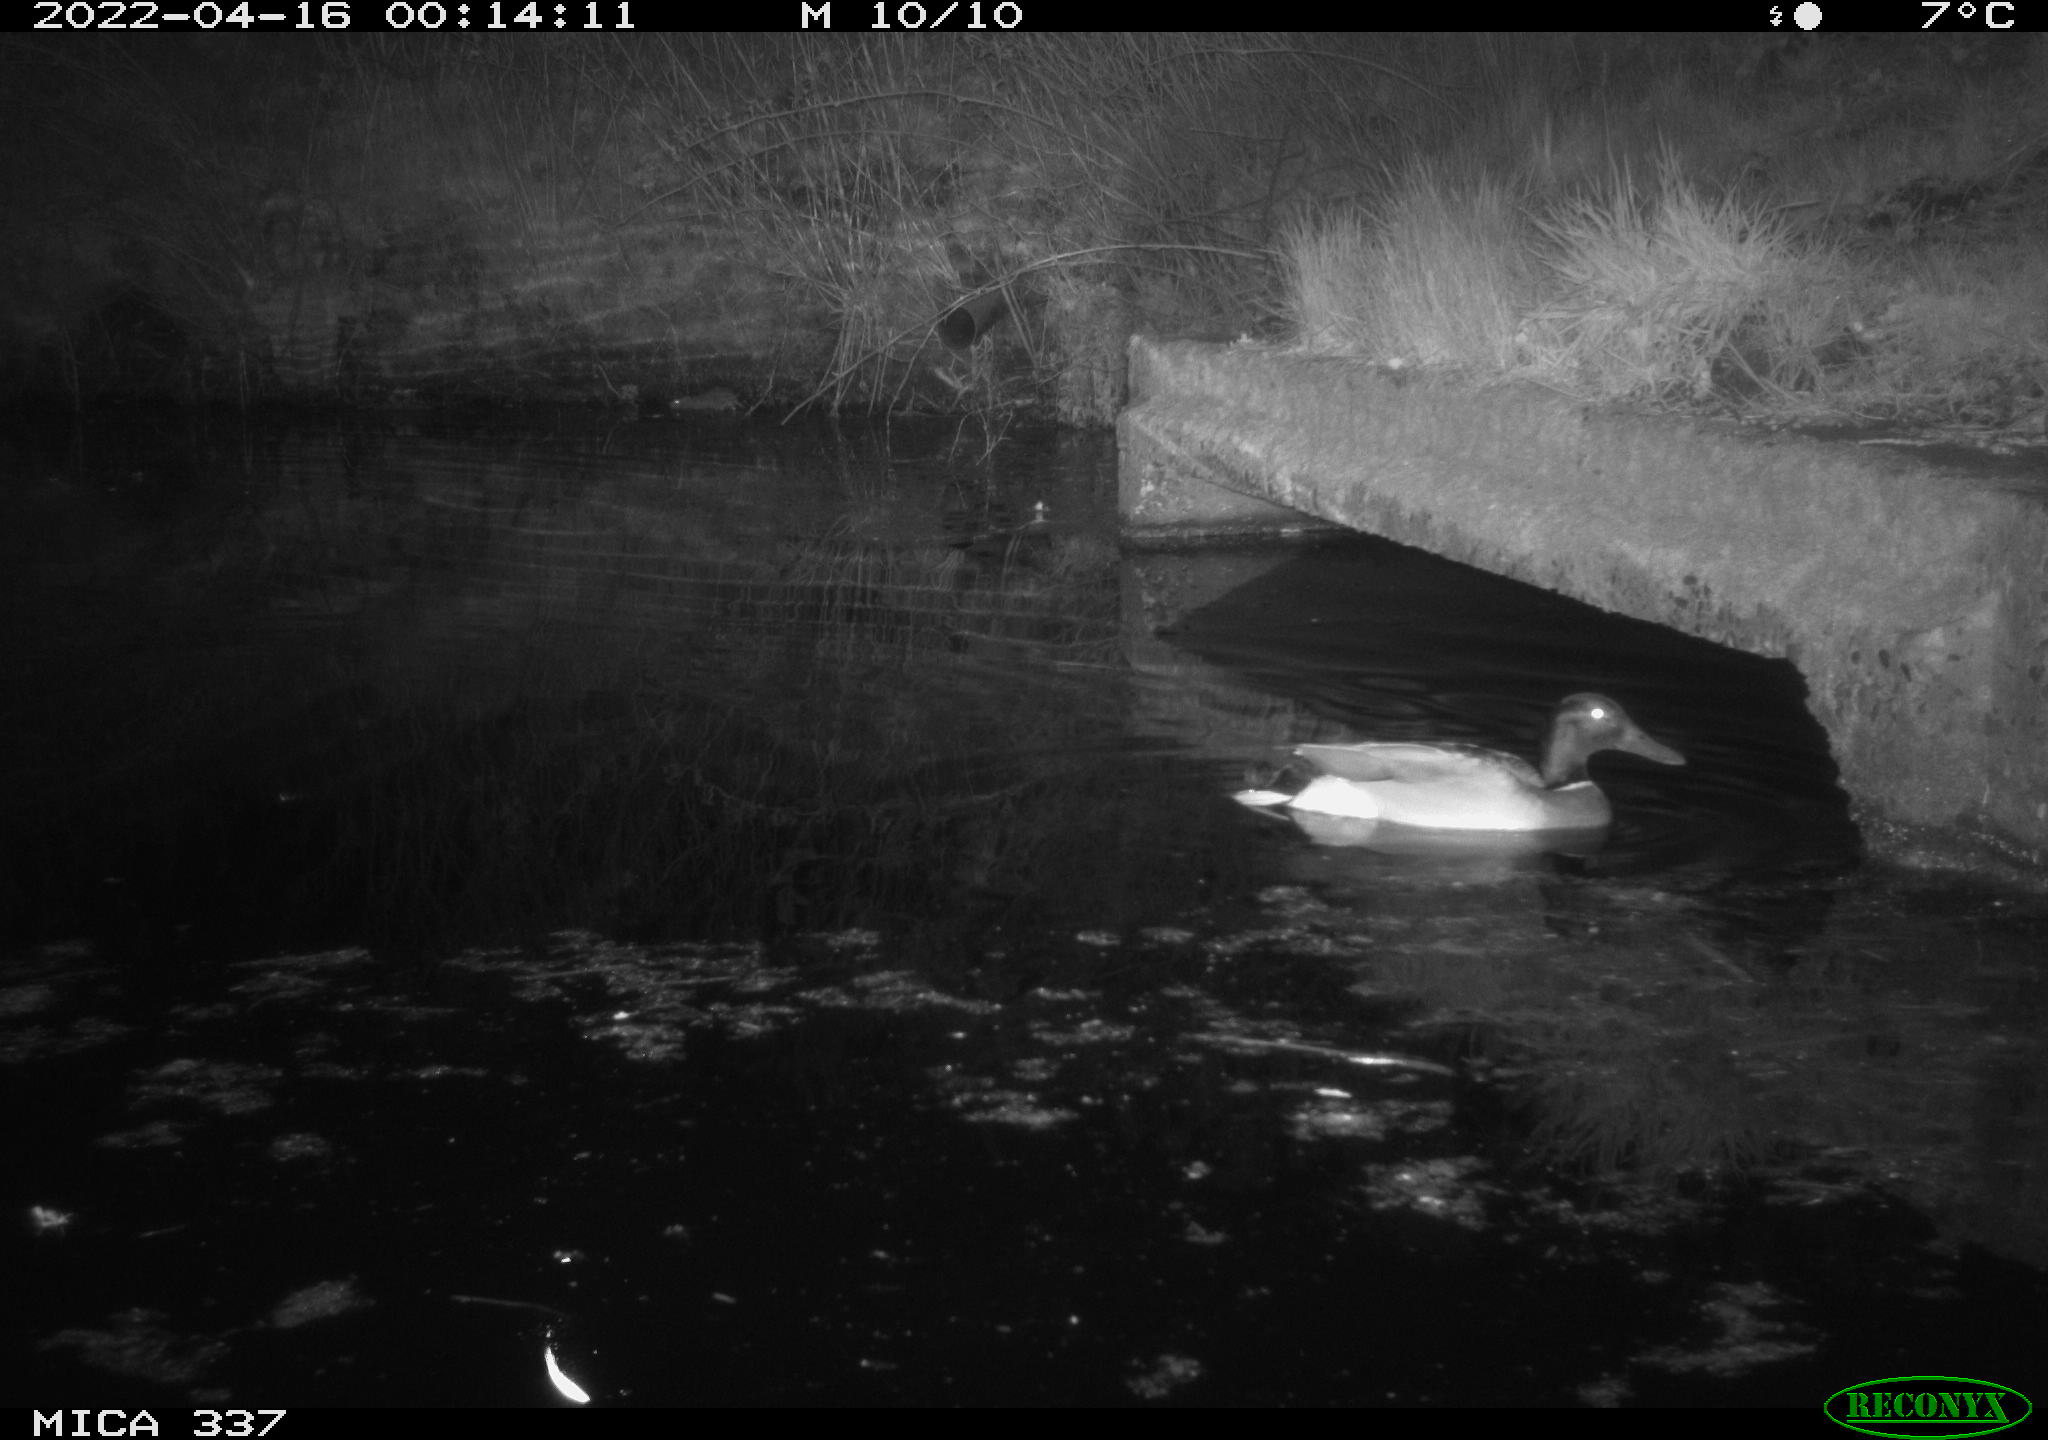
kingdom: Animalia
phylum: Chordata
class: Aves
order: Anseriformes
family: Anatidae
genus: Anas
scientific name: Anas platyrhynchos
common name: Mallard
